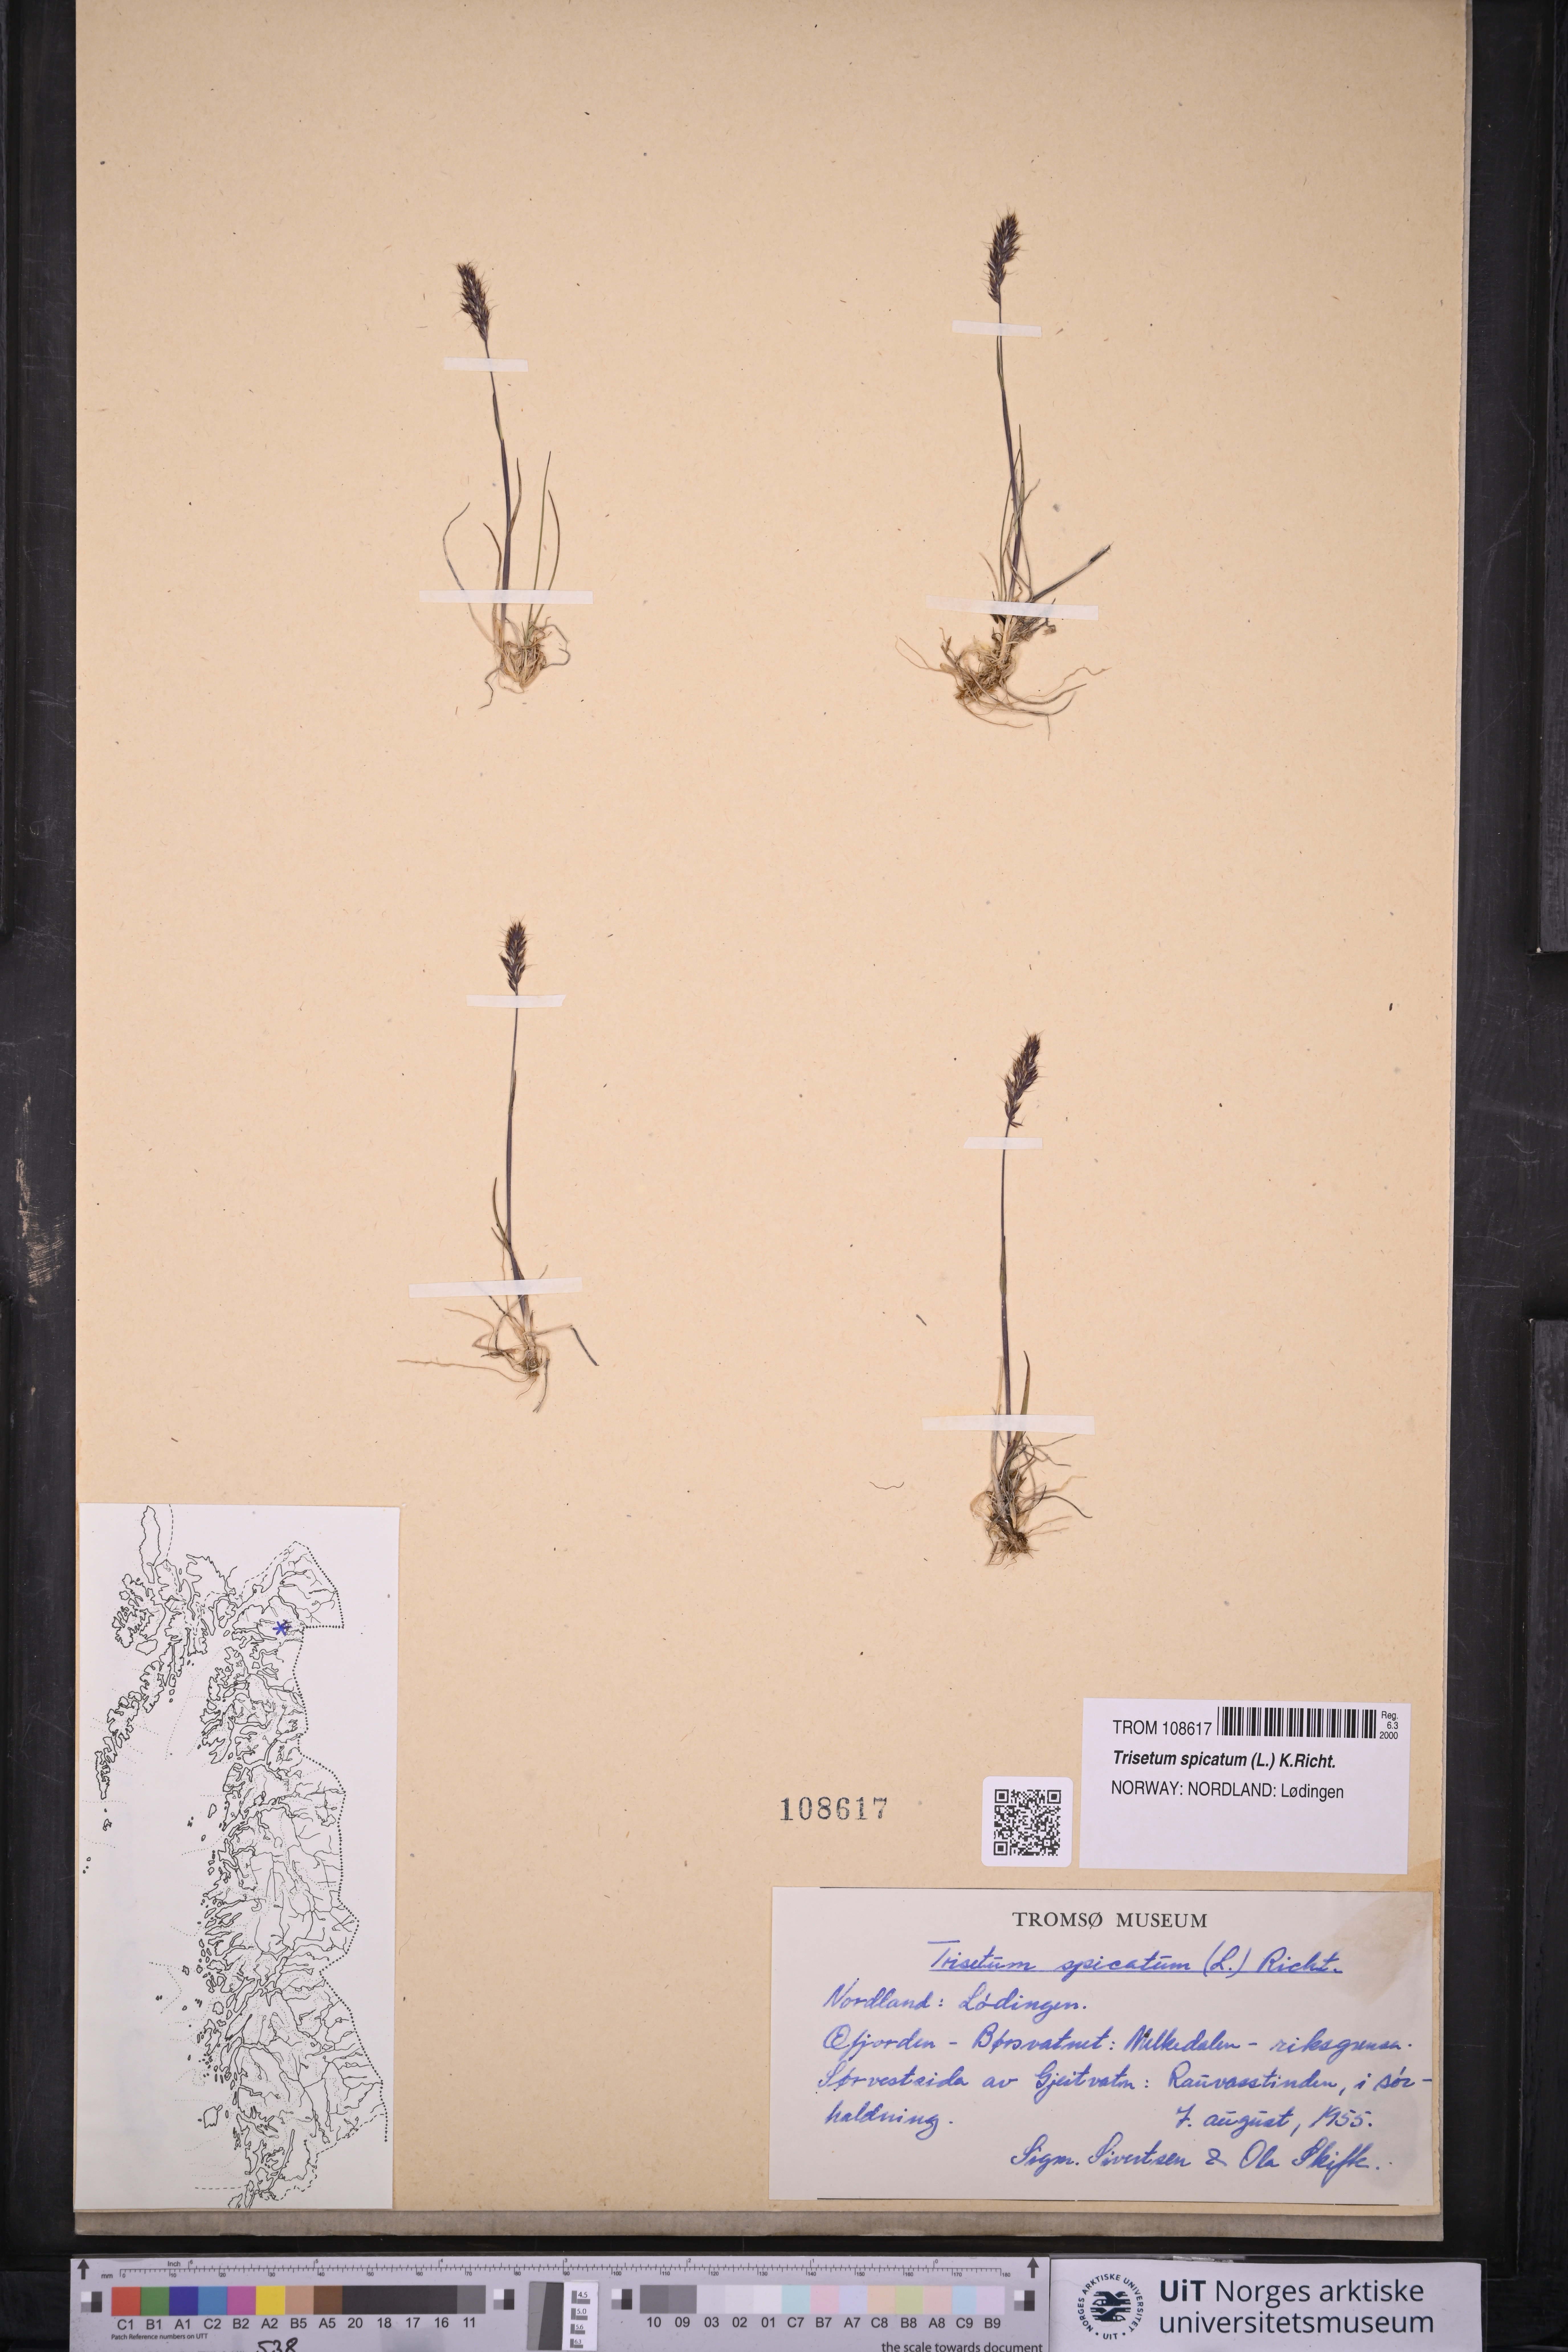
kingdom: Plantae
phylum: Tracheophyta
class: Liliopsida
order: Poales
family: Poaceae
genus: Koeleria
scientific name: Koeleria spicata
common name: Mountain trisetum
